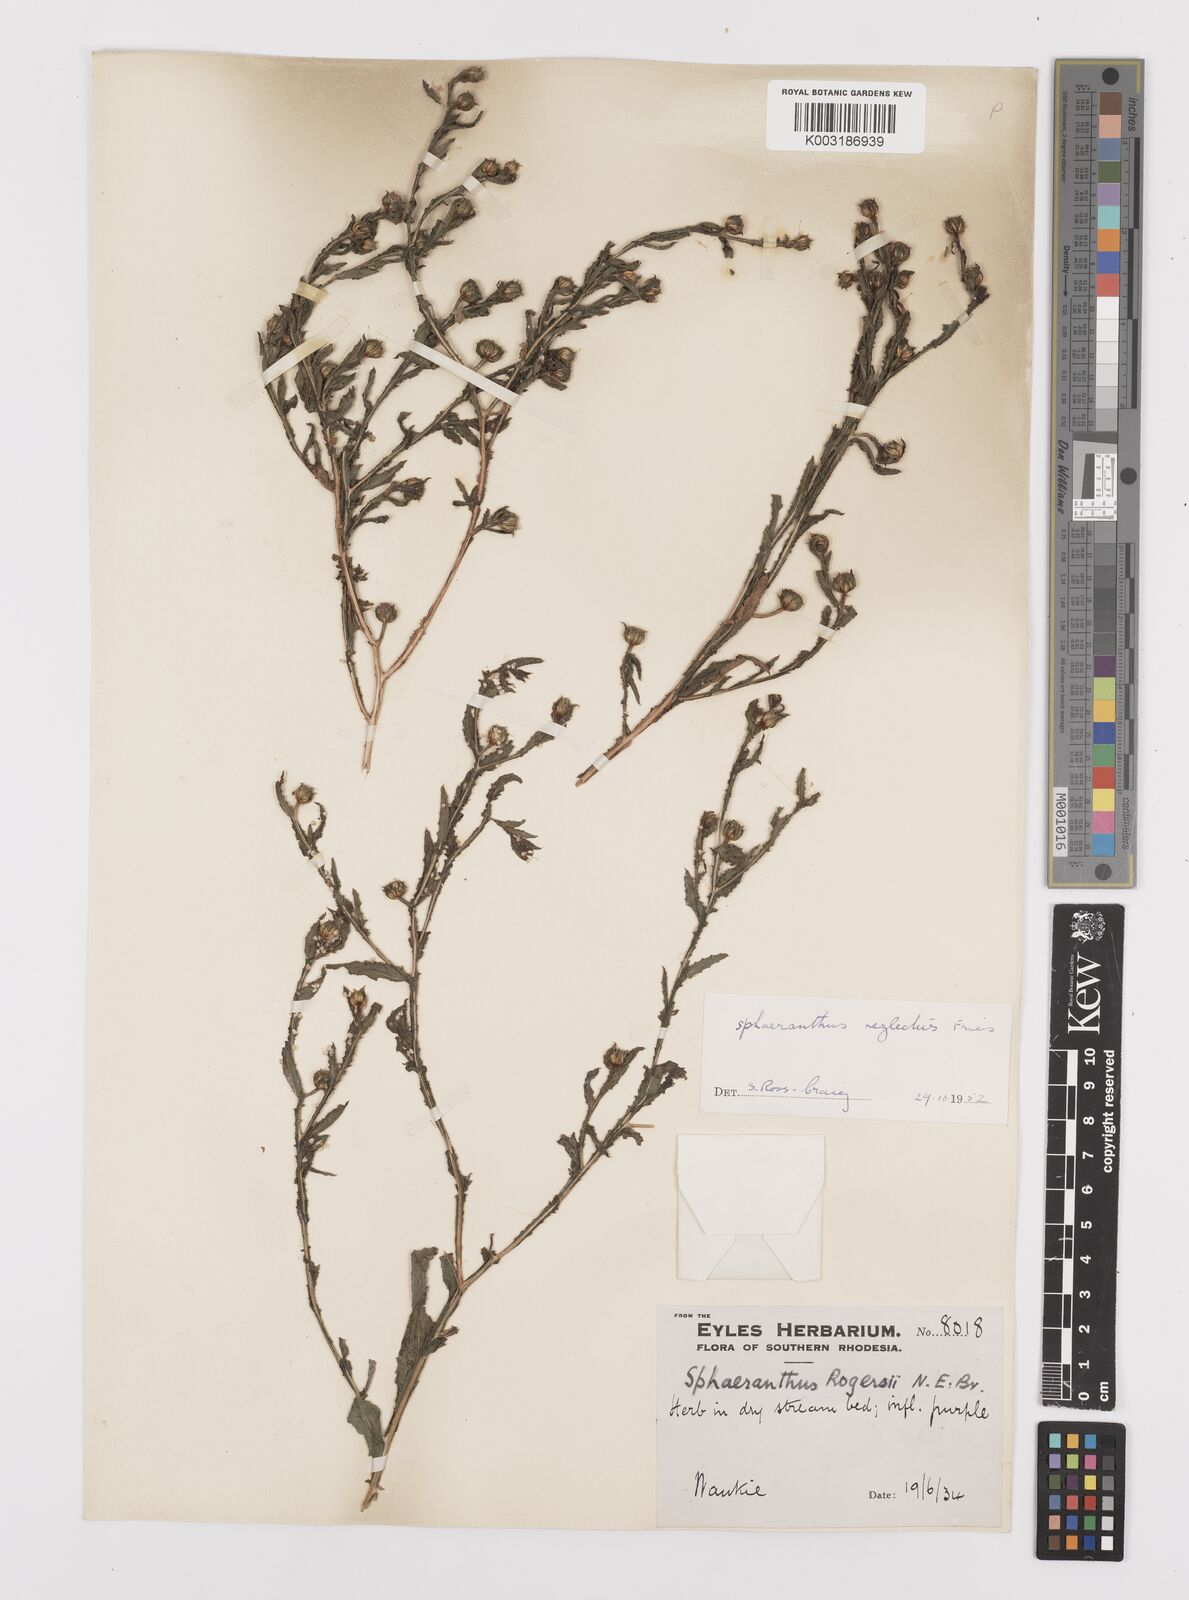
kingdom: Plantae
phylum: Tracheophyta
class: Magnoliopsida
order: Asterales
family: Asteraceae
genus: Sphaeranthus
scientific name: Sphaeranthus neglectus
